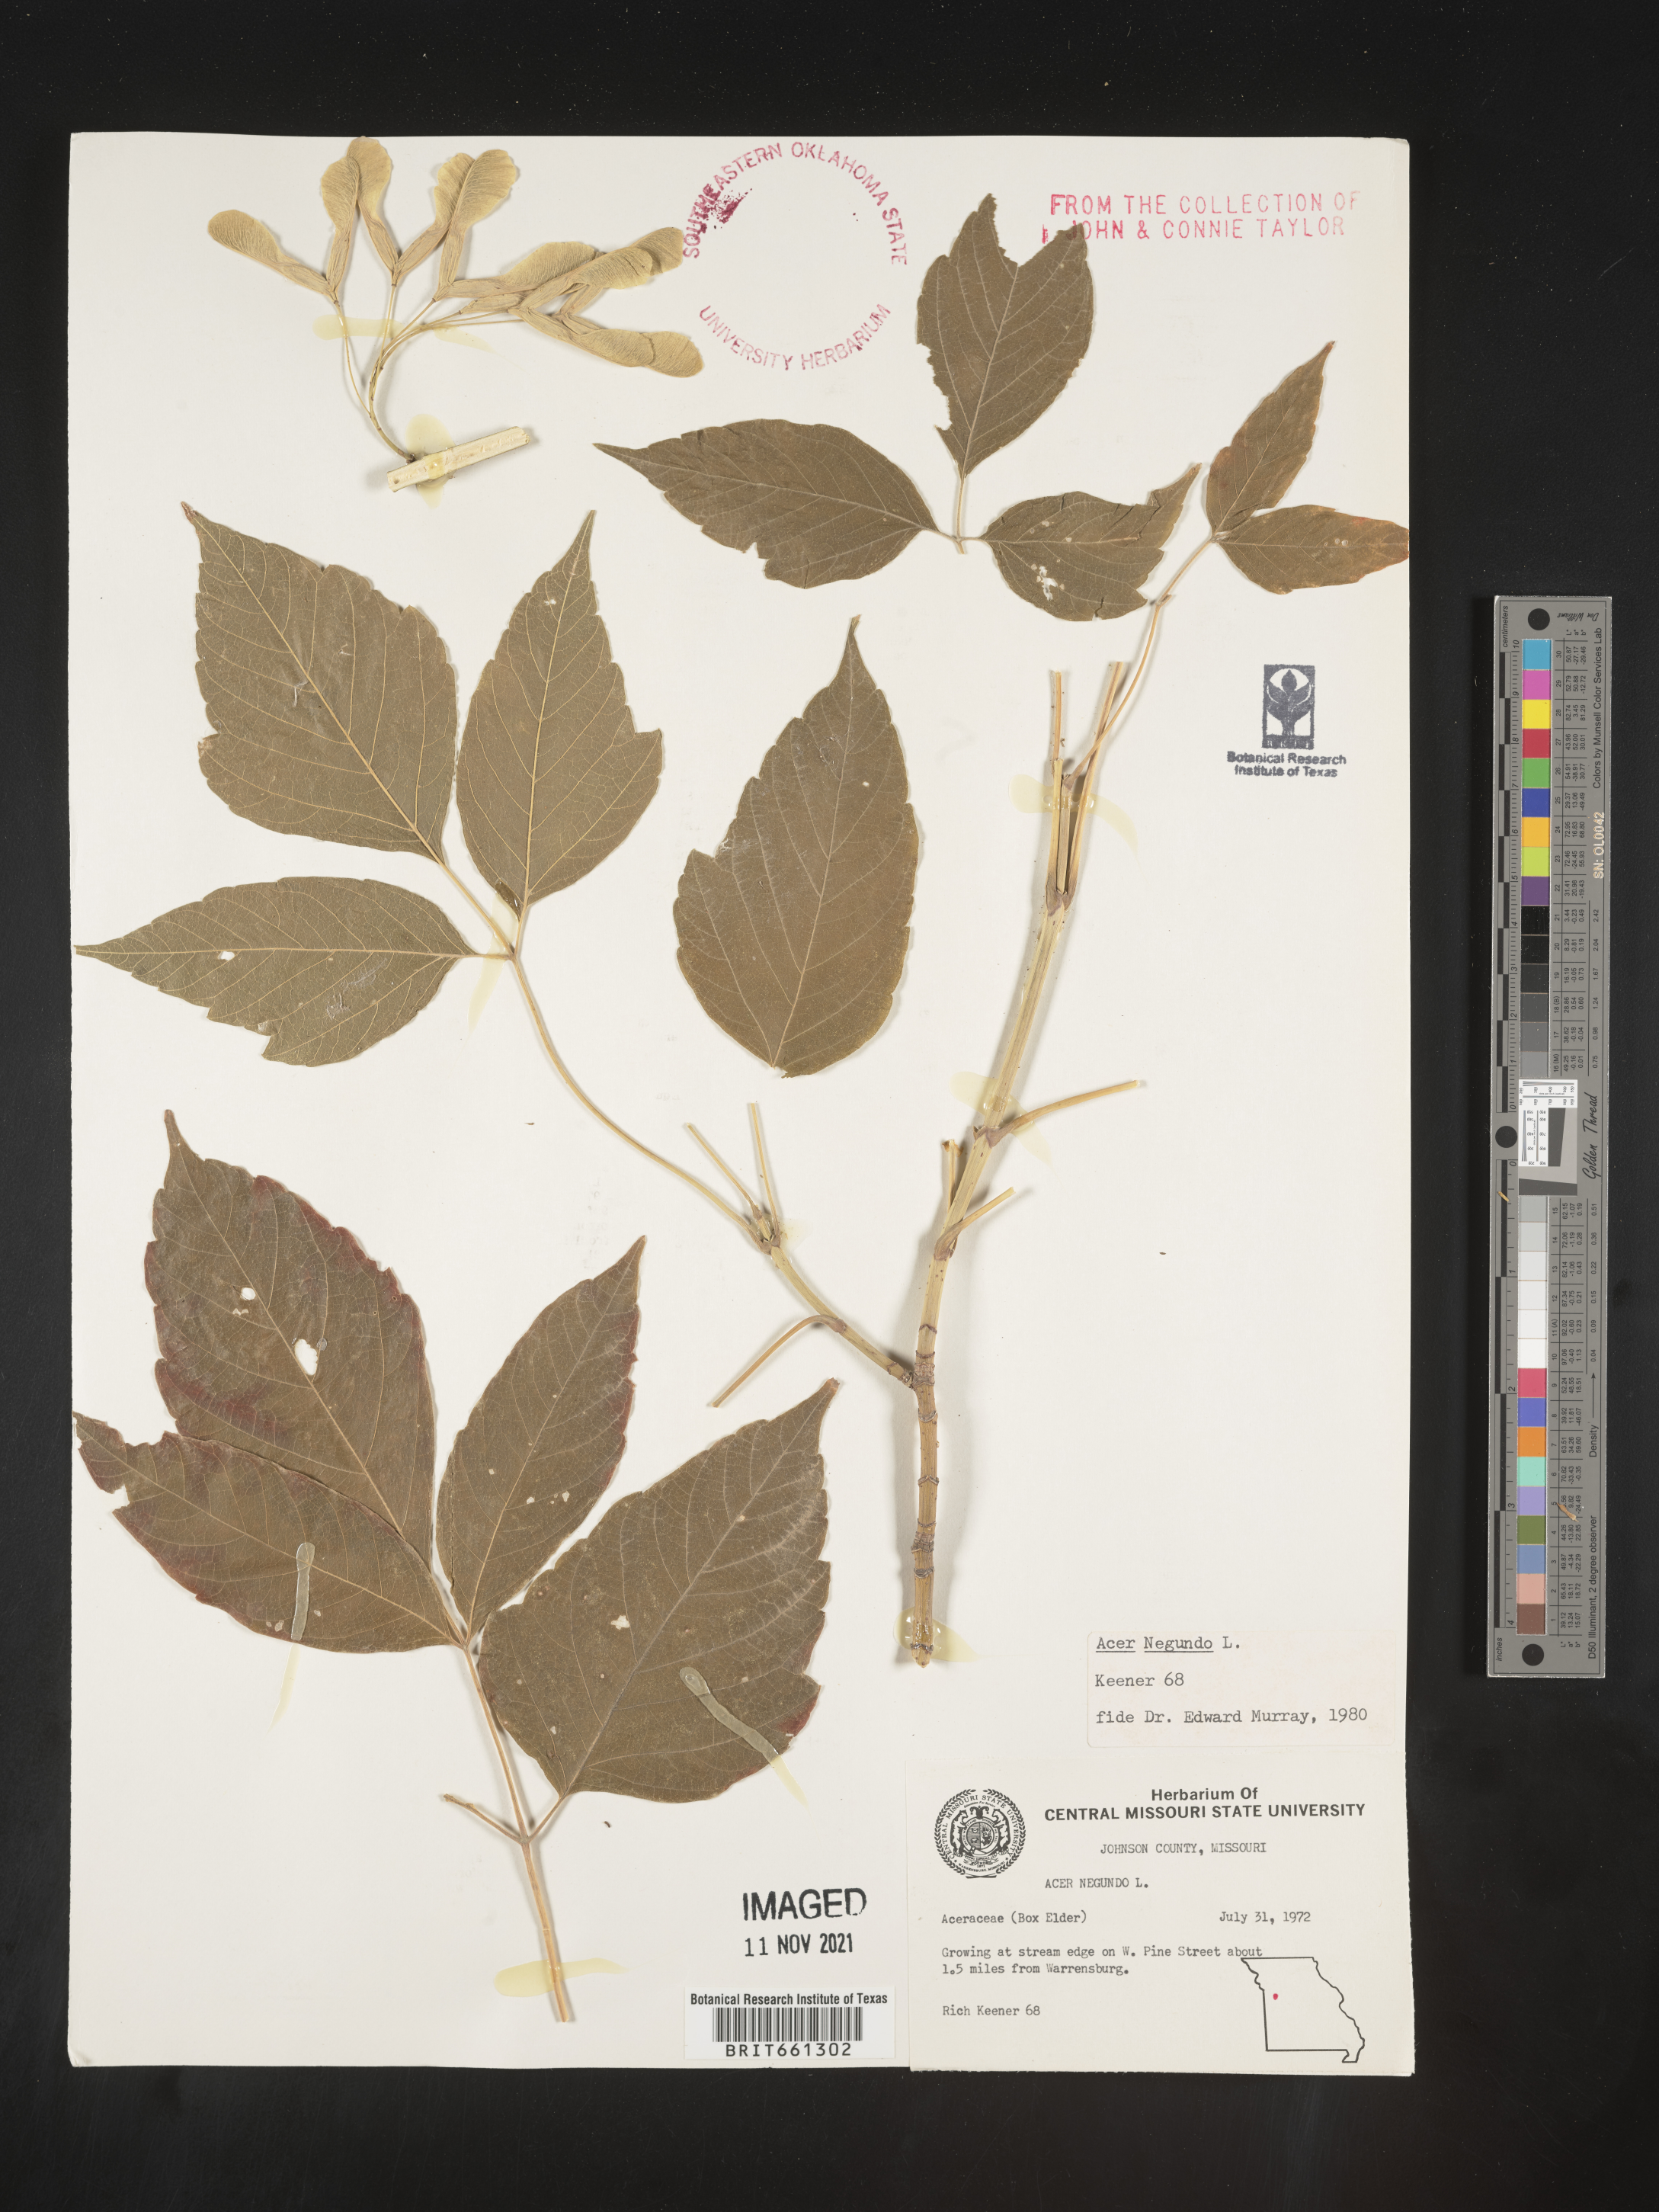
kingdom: Plantae
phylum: Tracheophyta
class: Magnoliopsida
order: Sapindales
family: Sapindaceae
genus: Acer
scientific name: Acer negundo
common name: Ashleaf maple
